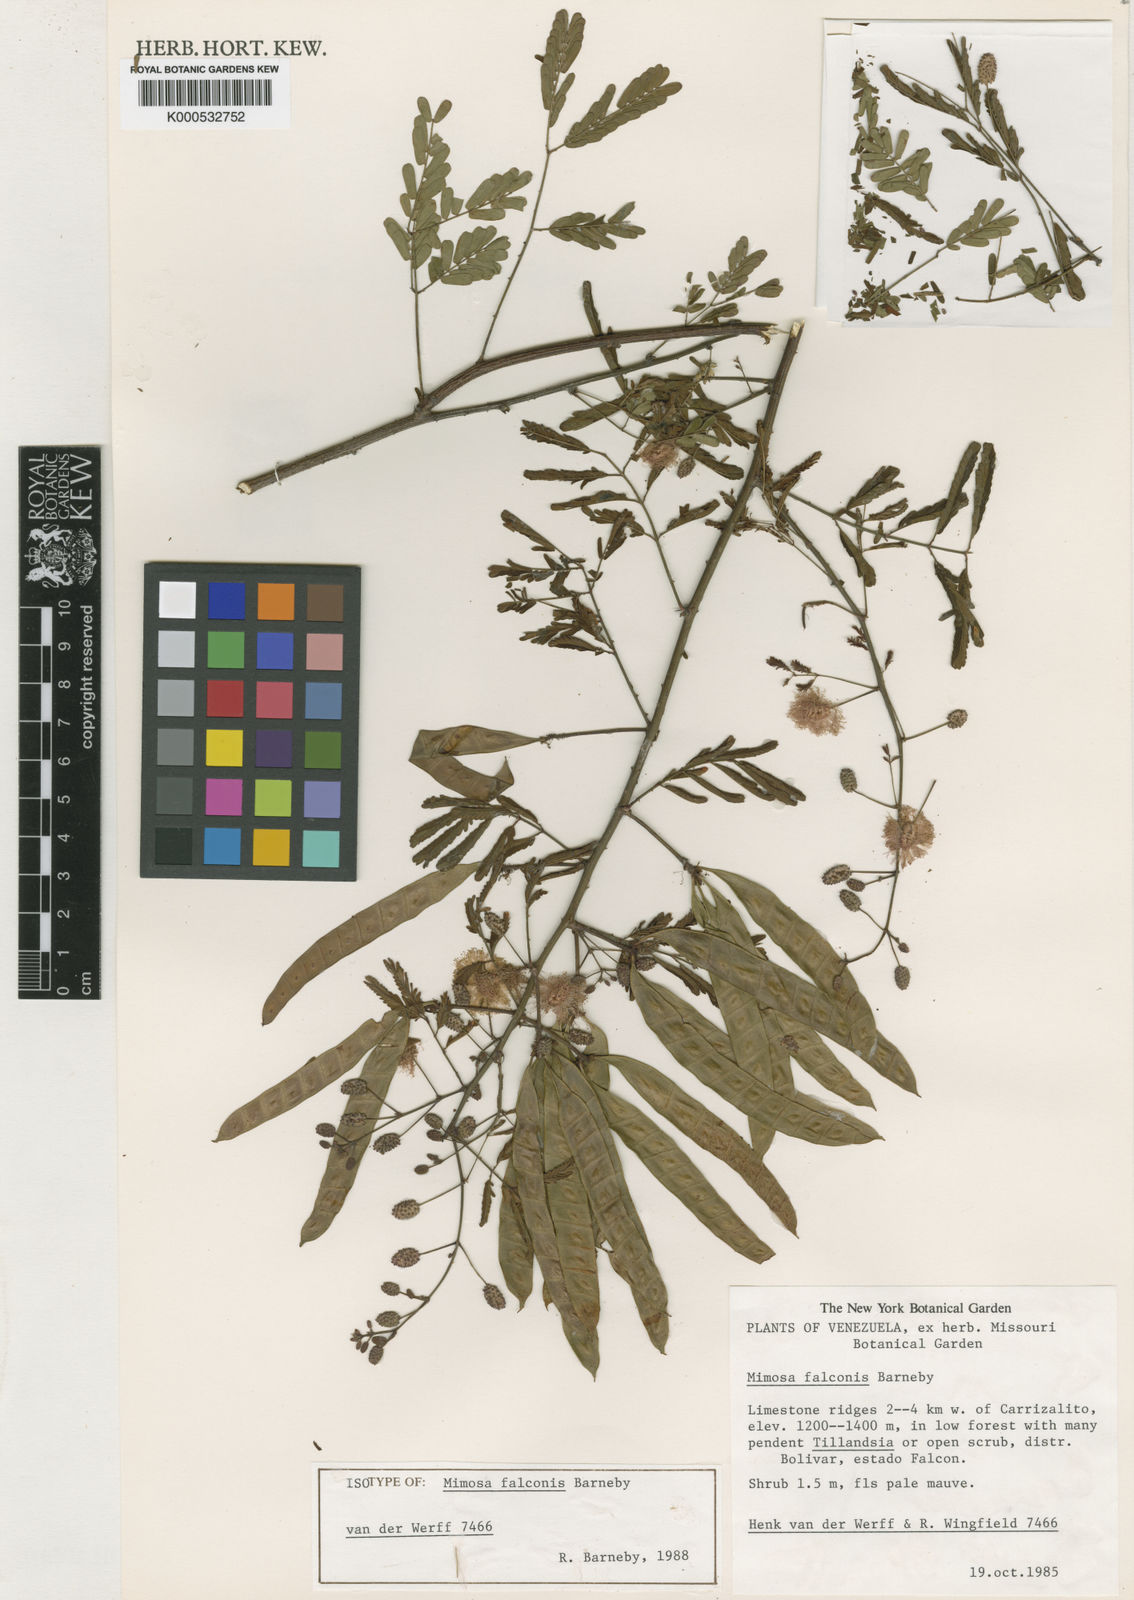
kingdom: Plantae
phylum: Tracheophyta
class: Magnoliopsida
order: Fabales
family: Fabaceae
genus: Mimosa
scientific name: Mimosa falconis
